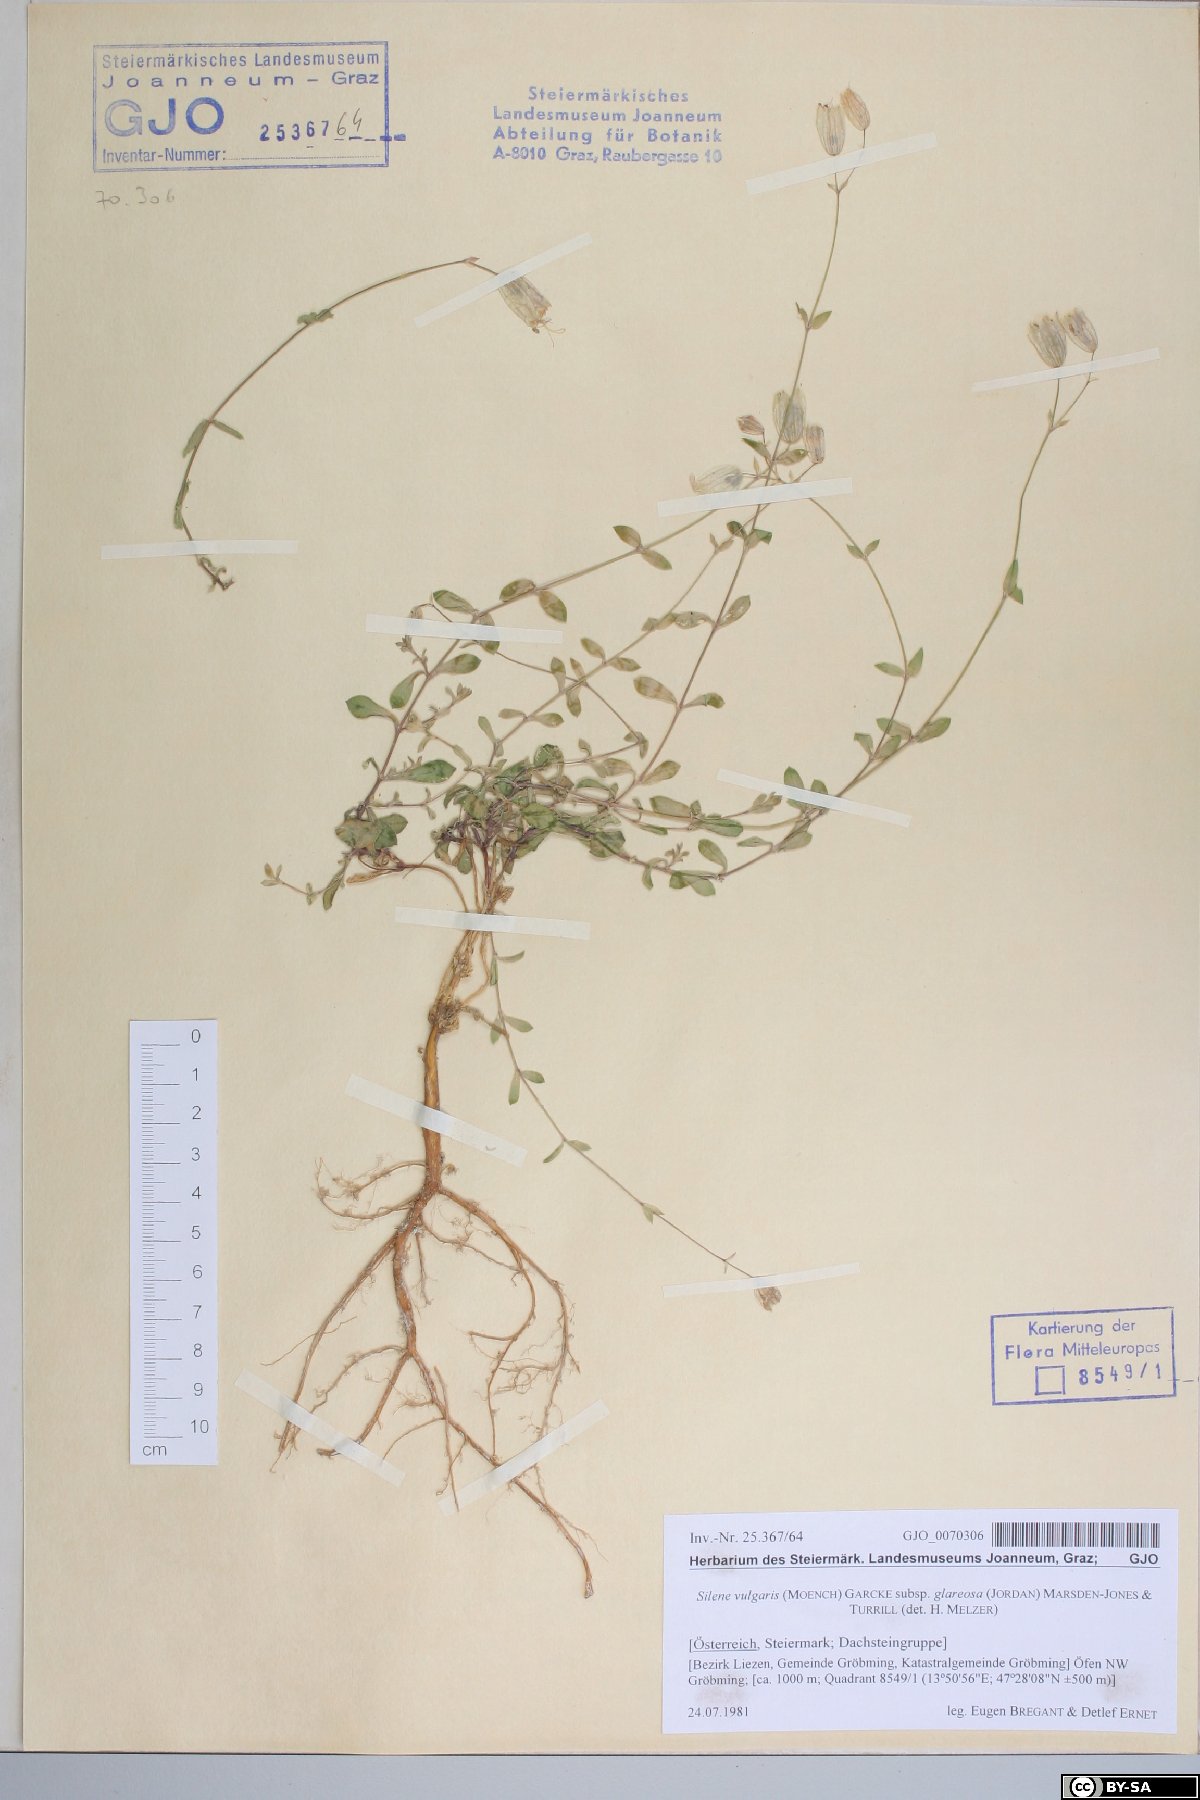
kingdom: Plantae
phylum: Tracheophyta
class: Magnoliopsida
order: Caryophyllales
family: Caryophyllaceae
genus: Silene
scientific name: Silene glareosa
